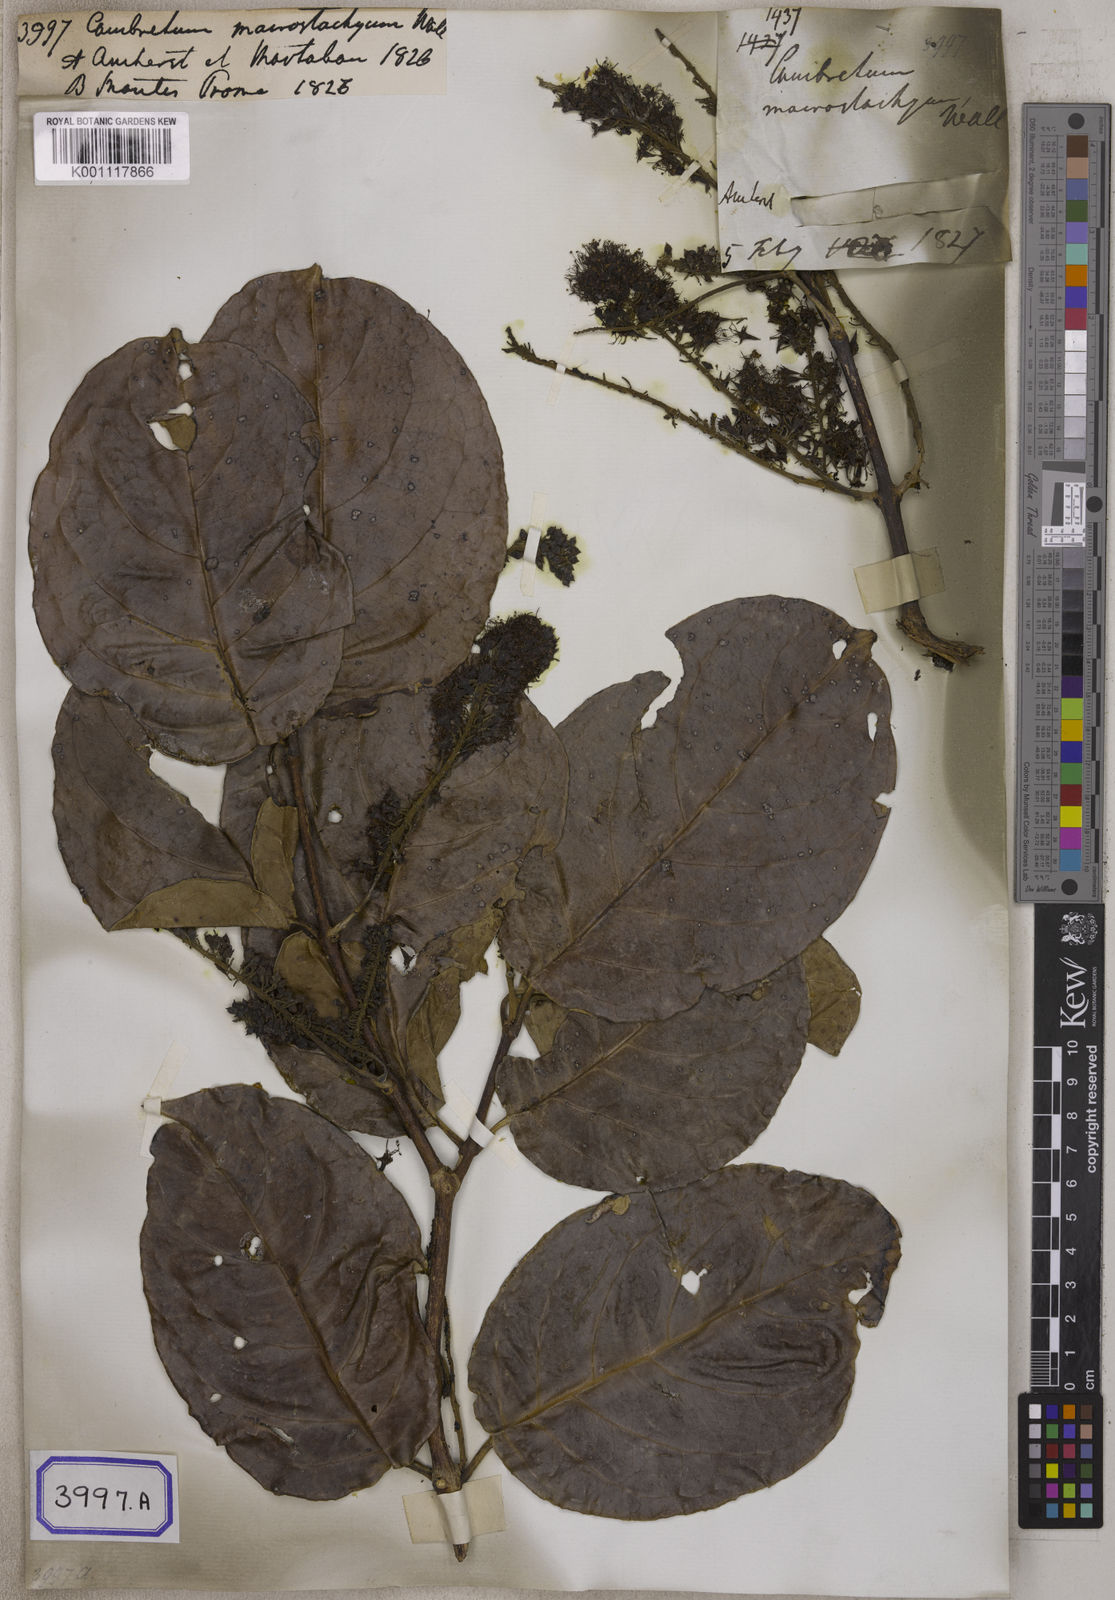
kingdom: Plantae
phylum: Tracheophyta
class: Magnoliopsida
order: Myrtales
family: Combretaceae
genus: Combretum
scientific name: Combretum latifolium
